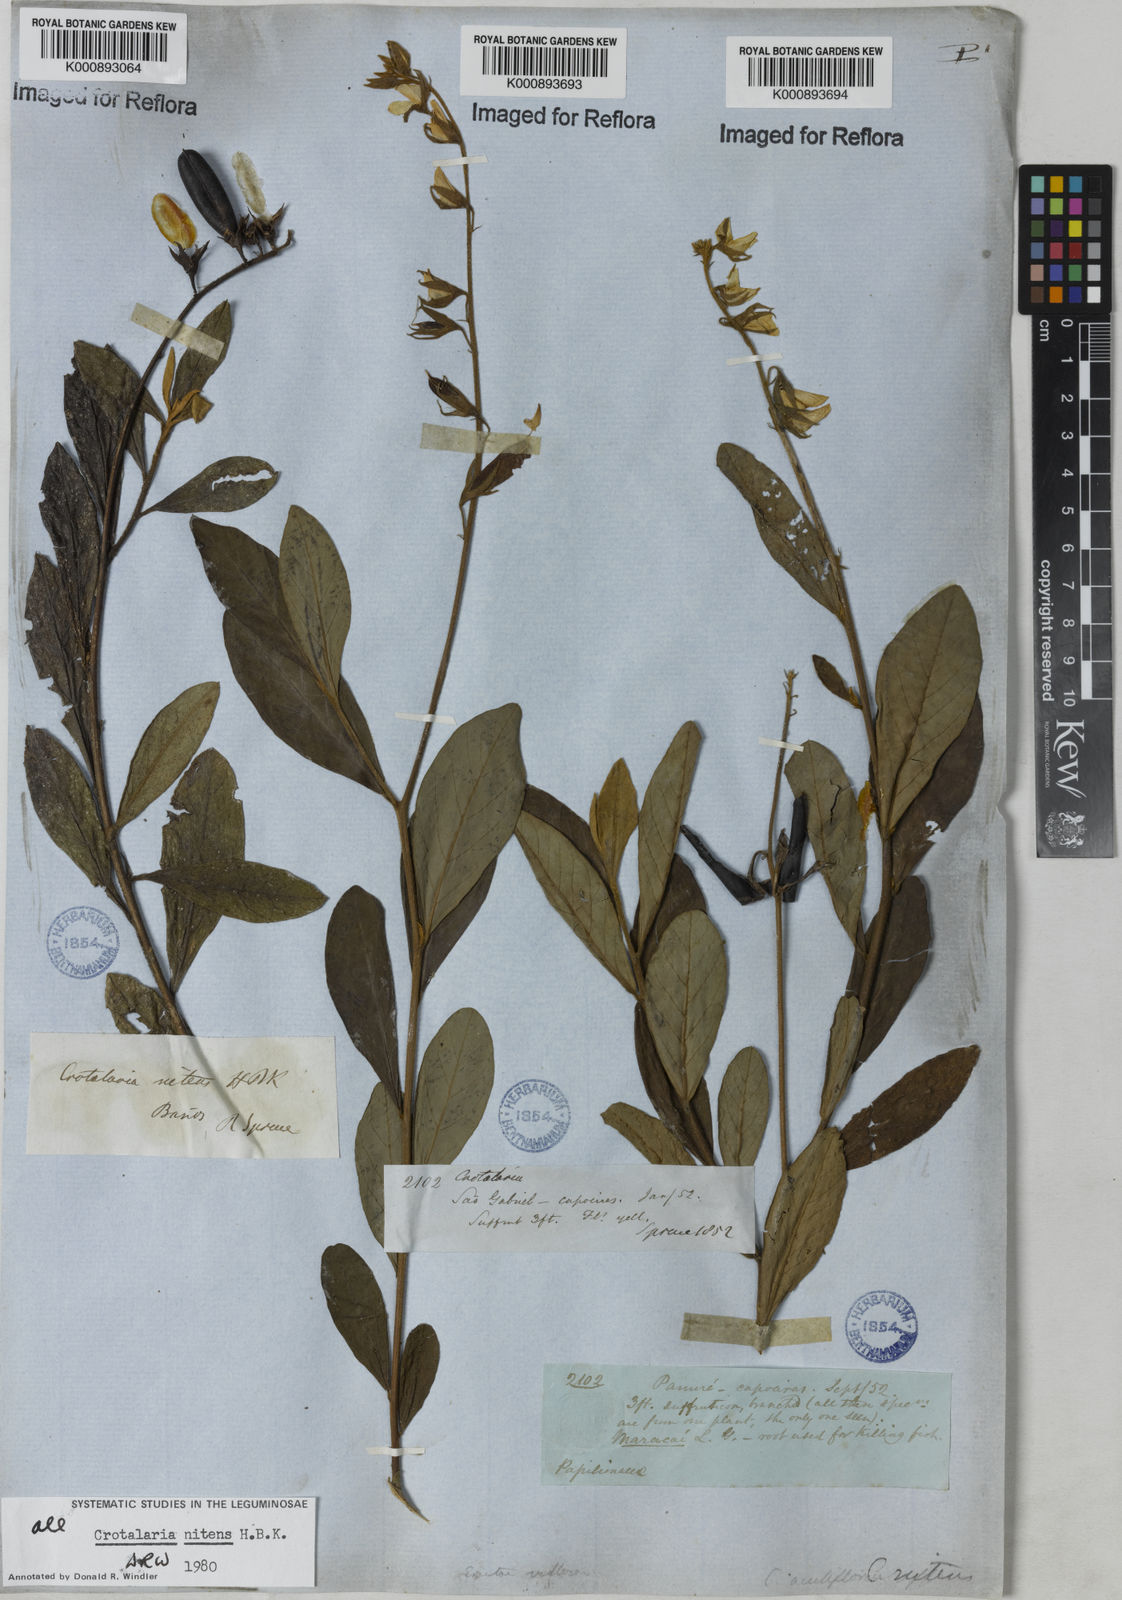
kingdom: Plantae
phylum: Tracheophyta
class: Magnoliopsida
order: Fabales
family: Fabaceae
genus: Crotalaria
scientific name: Crotalaria
